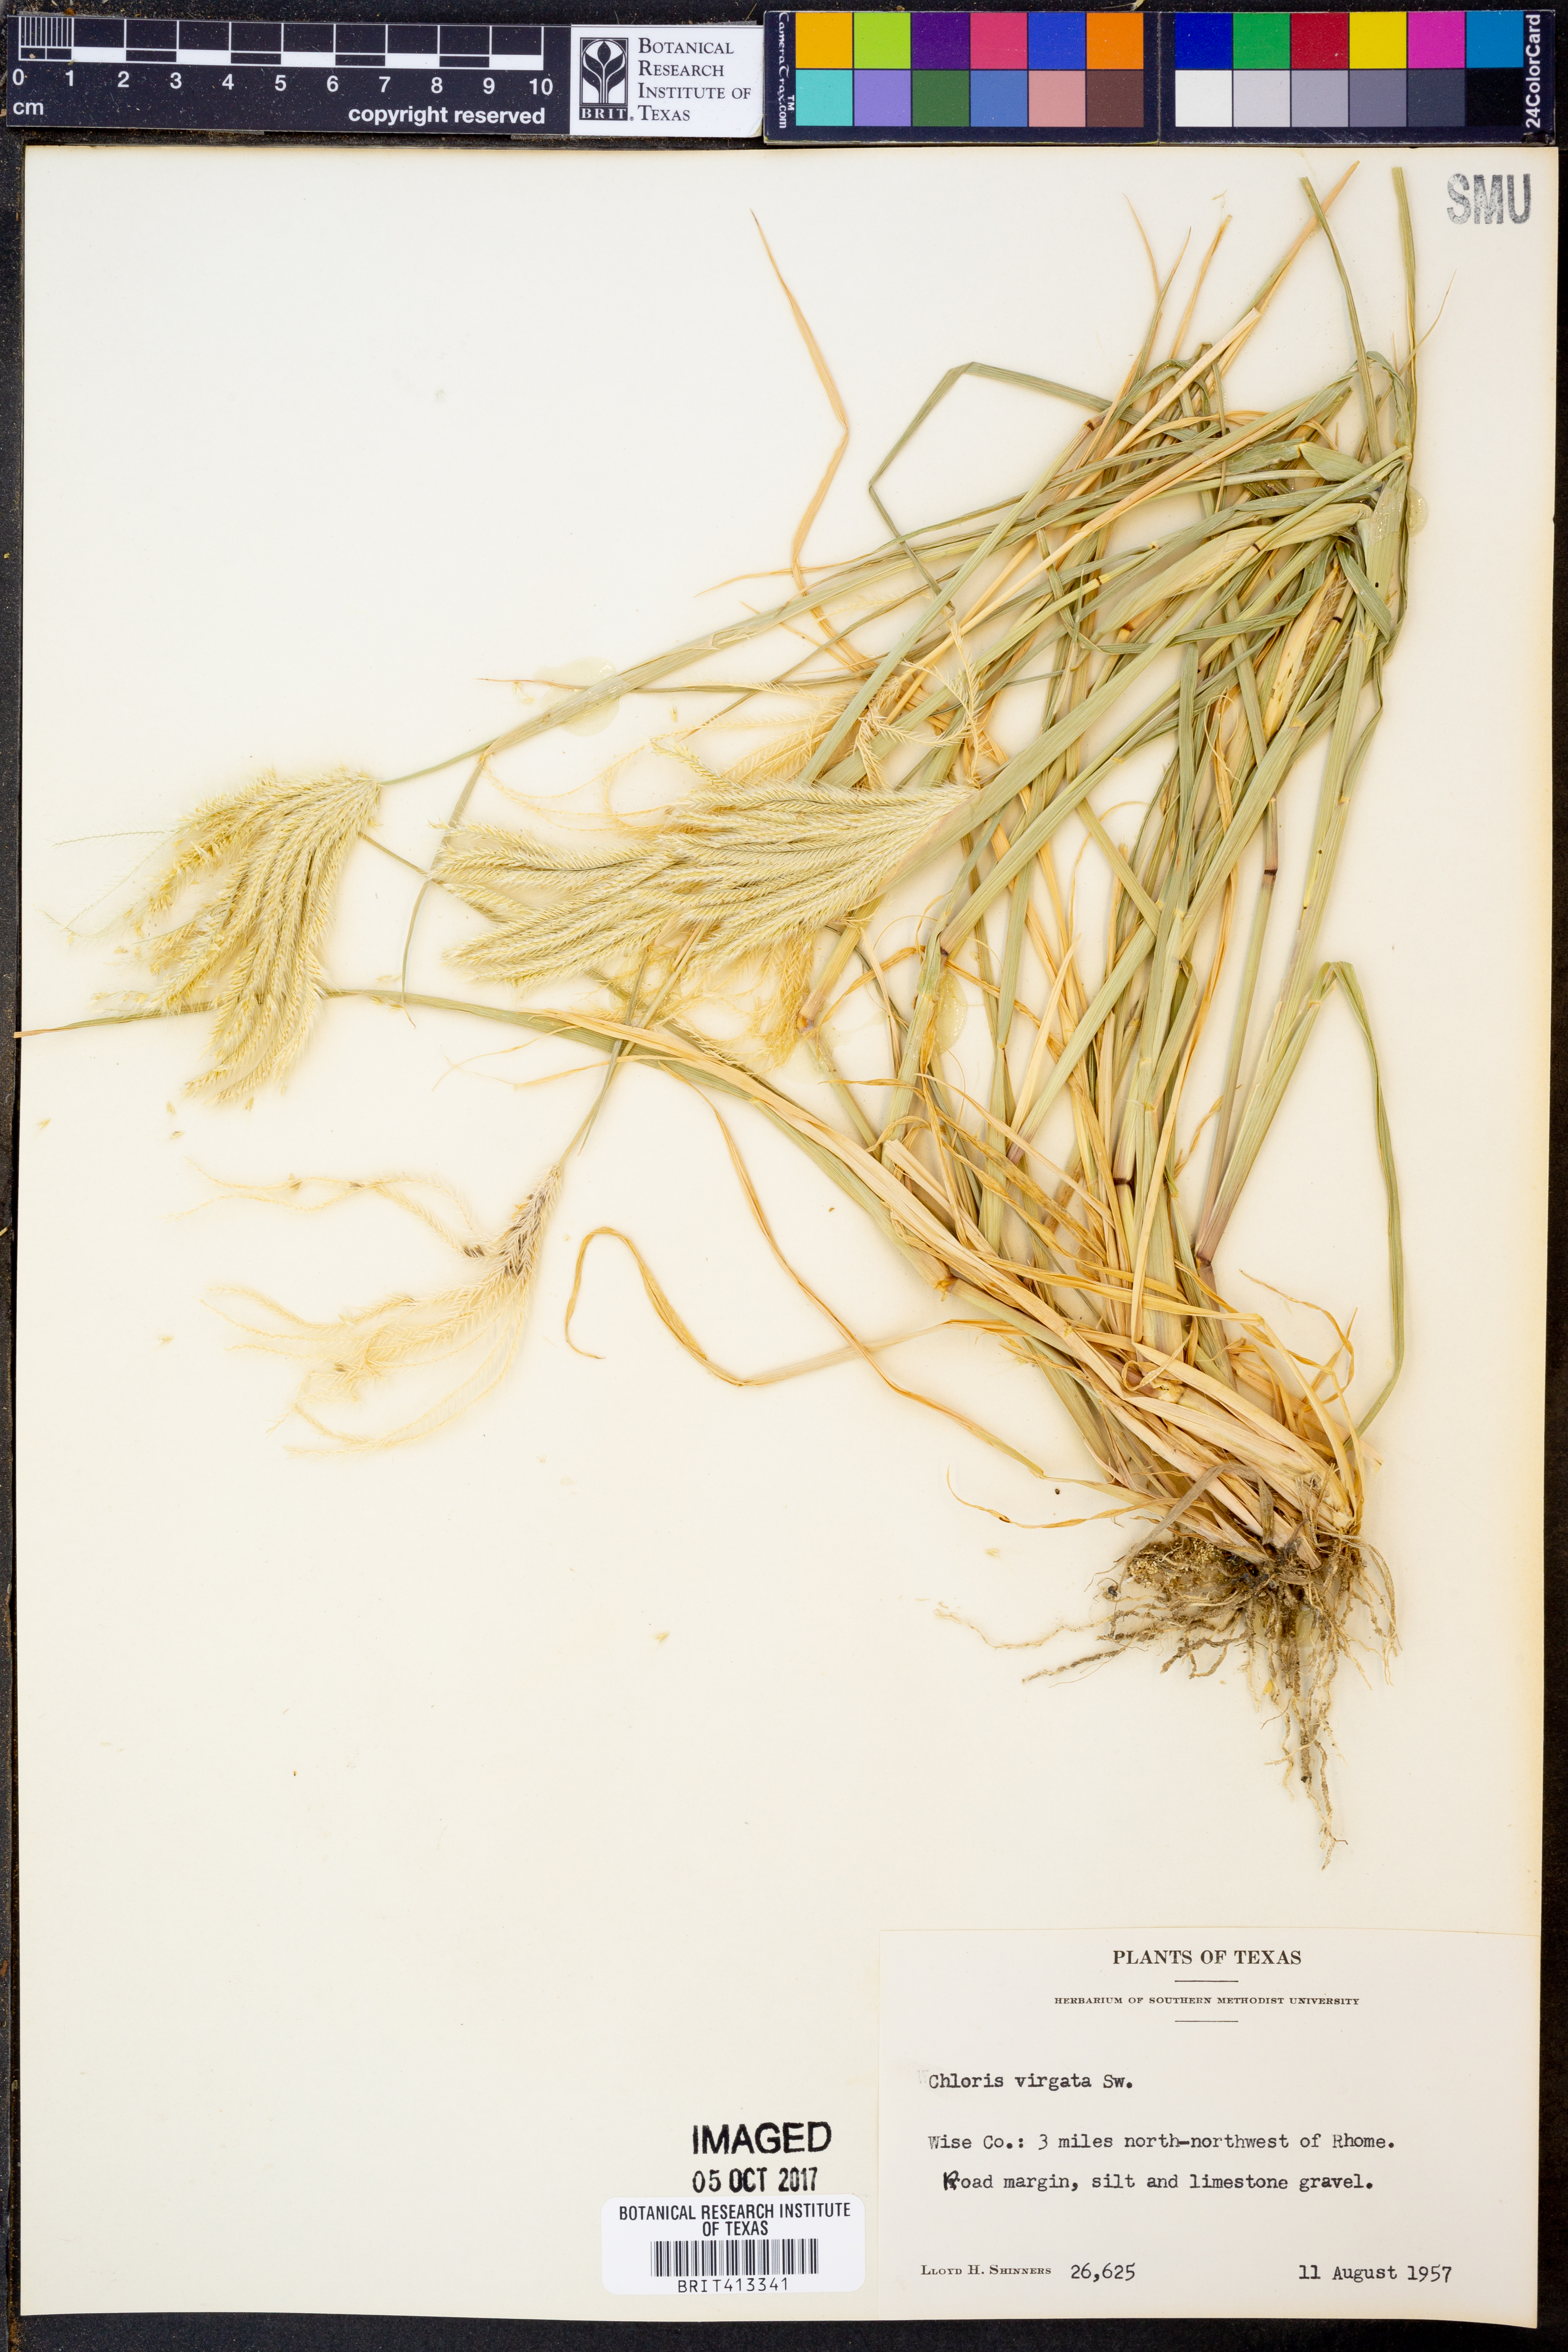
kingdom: Plantae
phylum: Tracheophyta
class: Liliopsida
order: Poales
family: Poaceae
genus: Chloris
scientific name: Chloris virgata
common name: Feathery rhodes-grass
